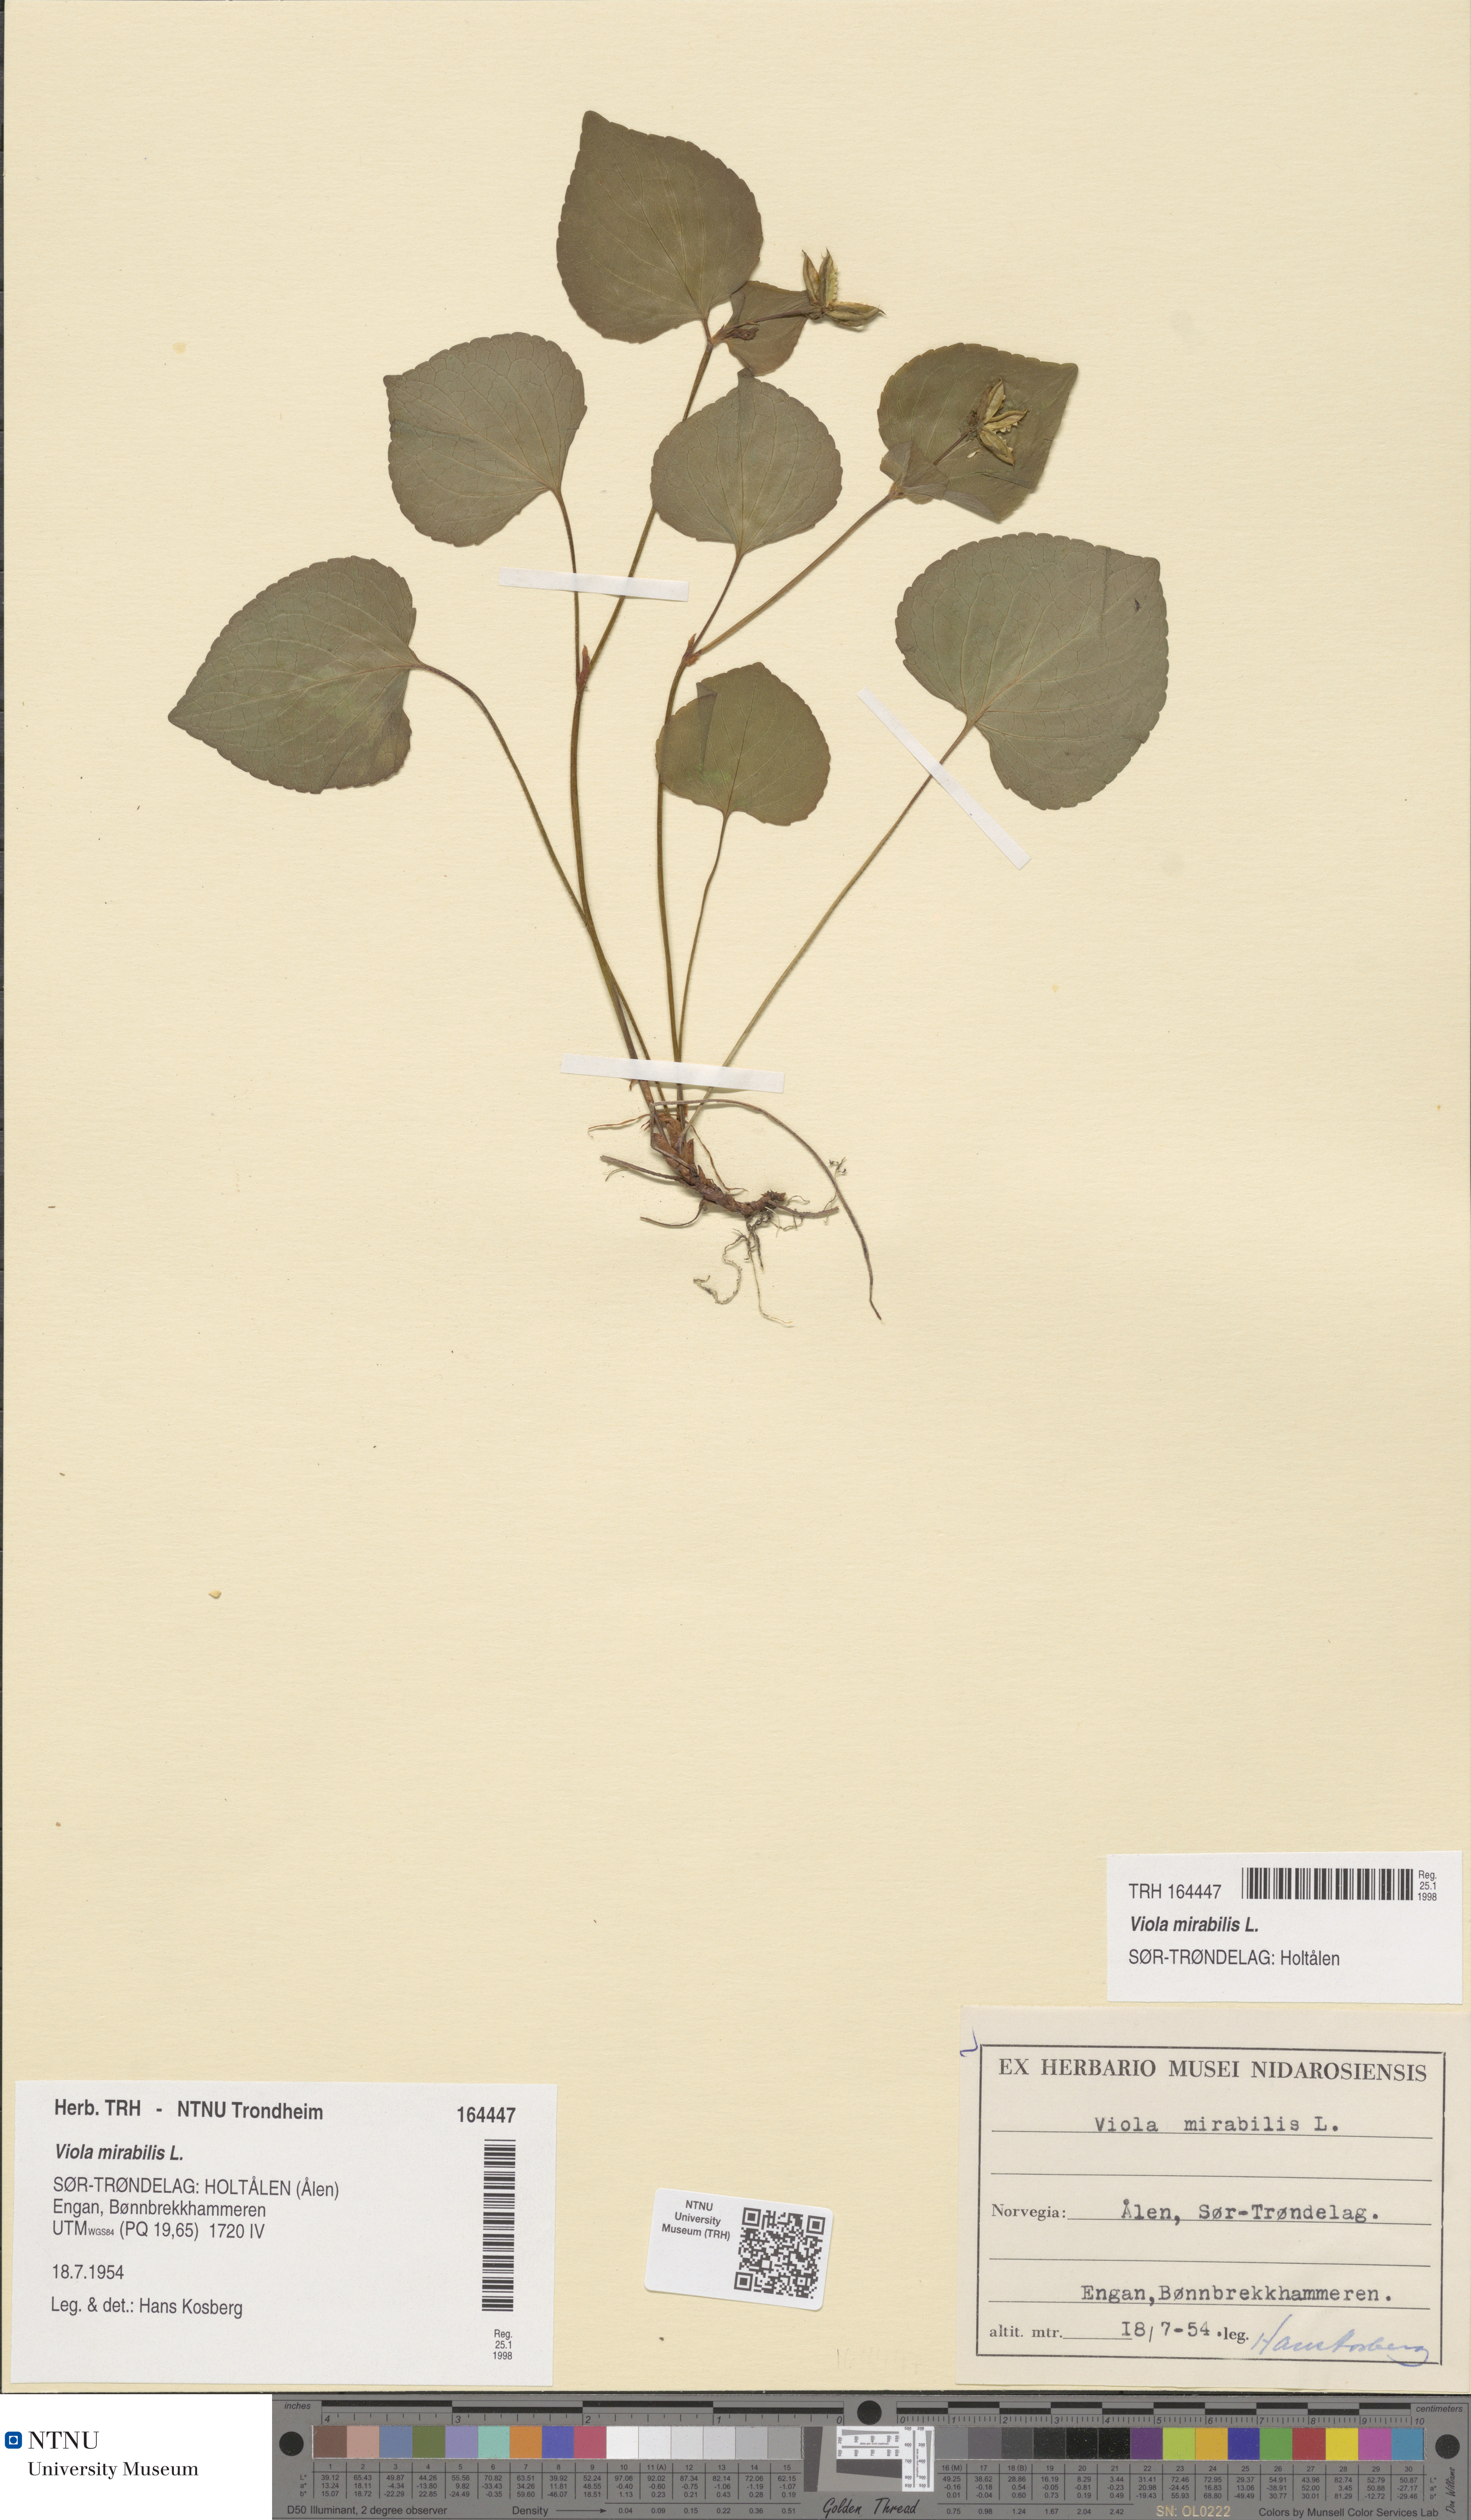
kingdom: Plantae
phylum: Tracheophyta
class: Magnoliopsida
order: Malpighiales
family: Violaceae
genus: Viola
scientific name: Viola mirabilis
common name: Wonder violet
